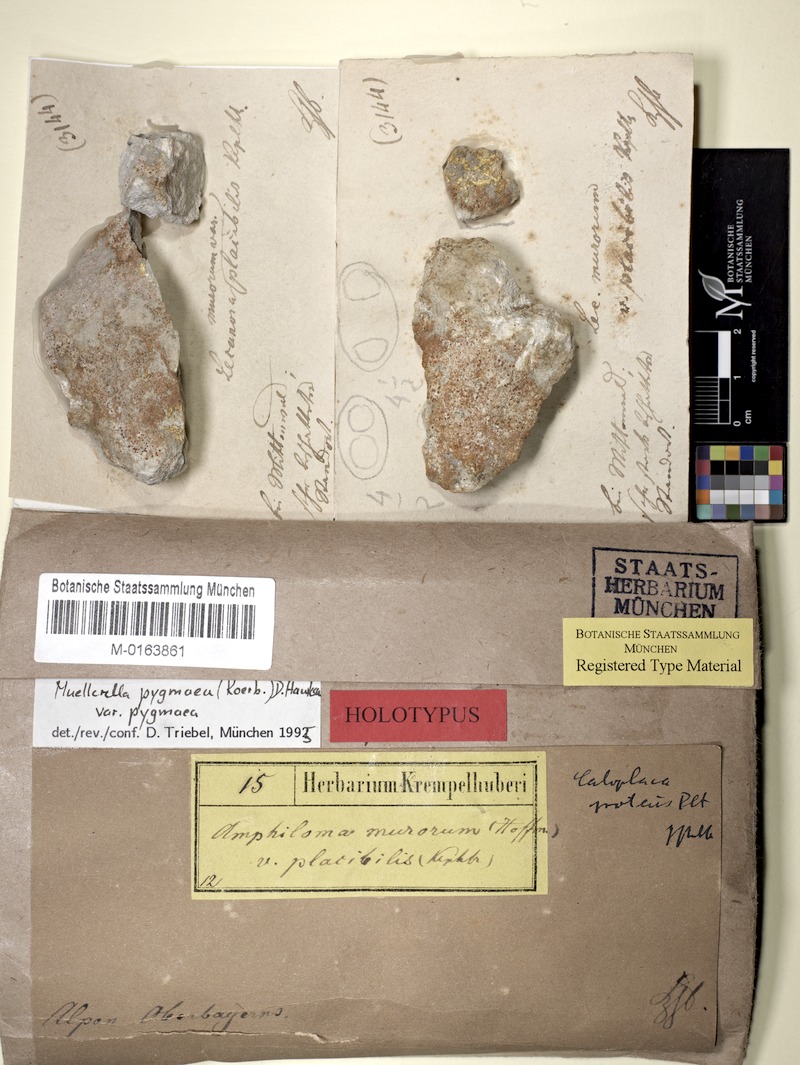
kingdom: Fungi
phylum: Ascomycota
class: Eurotiomycetes
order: Verrucariales
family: Verrucariaceae
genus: Muellerella
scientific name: Muellerella pygmaea
